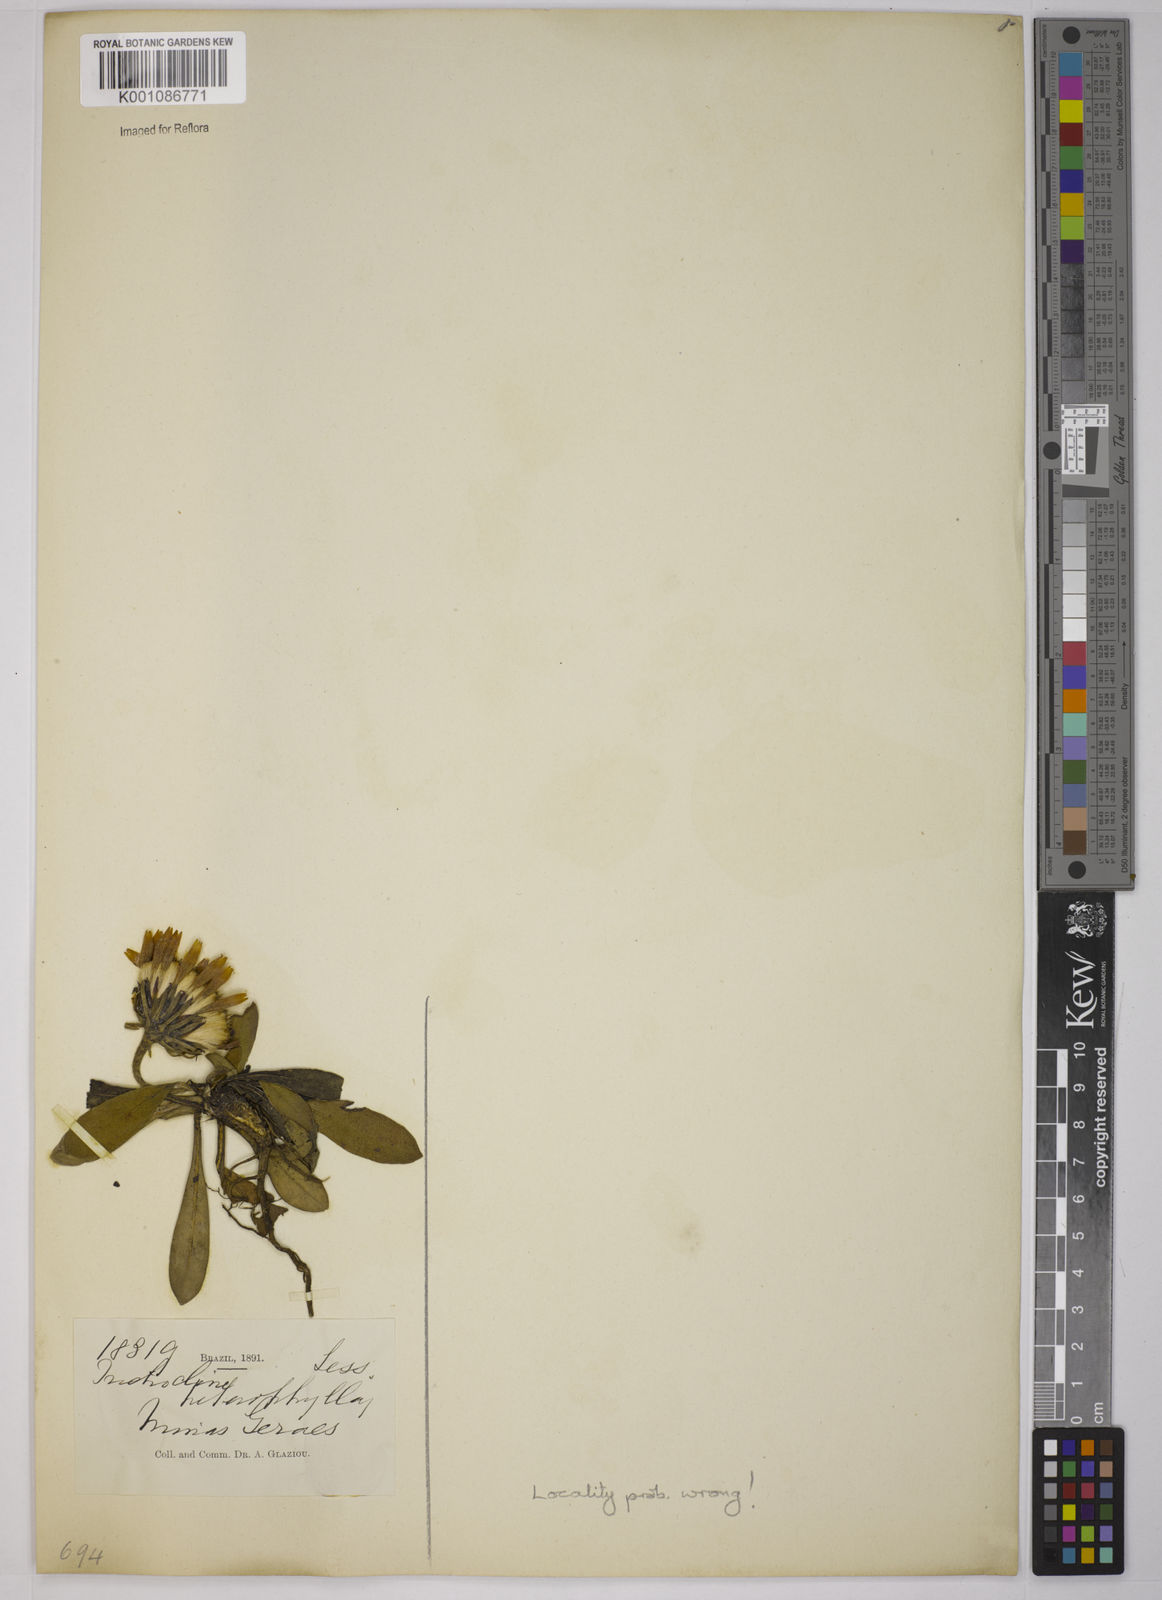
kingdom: Plantae
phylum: Tracheophyta
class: Magnoliopsida
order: Asterales
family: Asteraceae
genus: Trichocline
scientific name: Trichocline catharinensis
